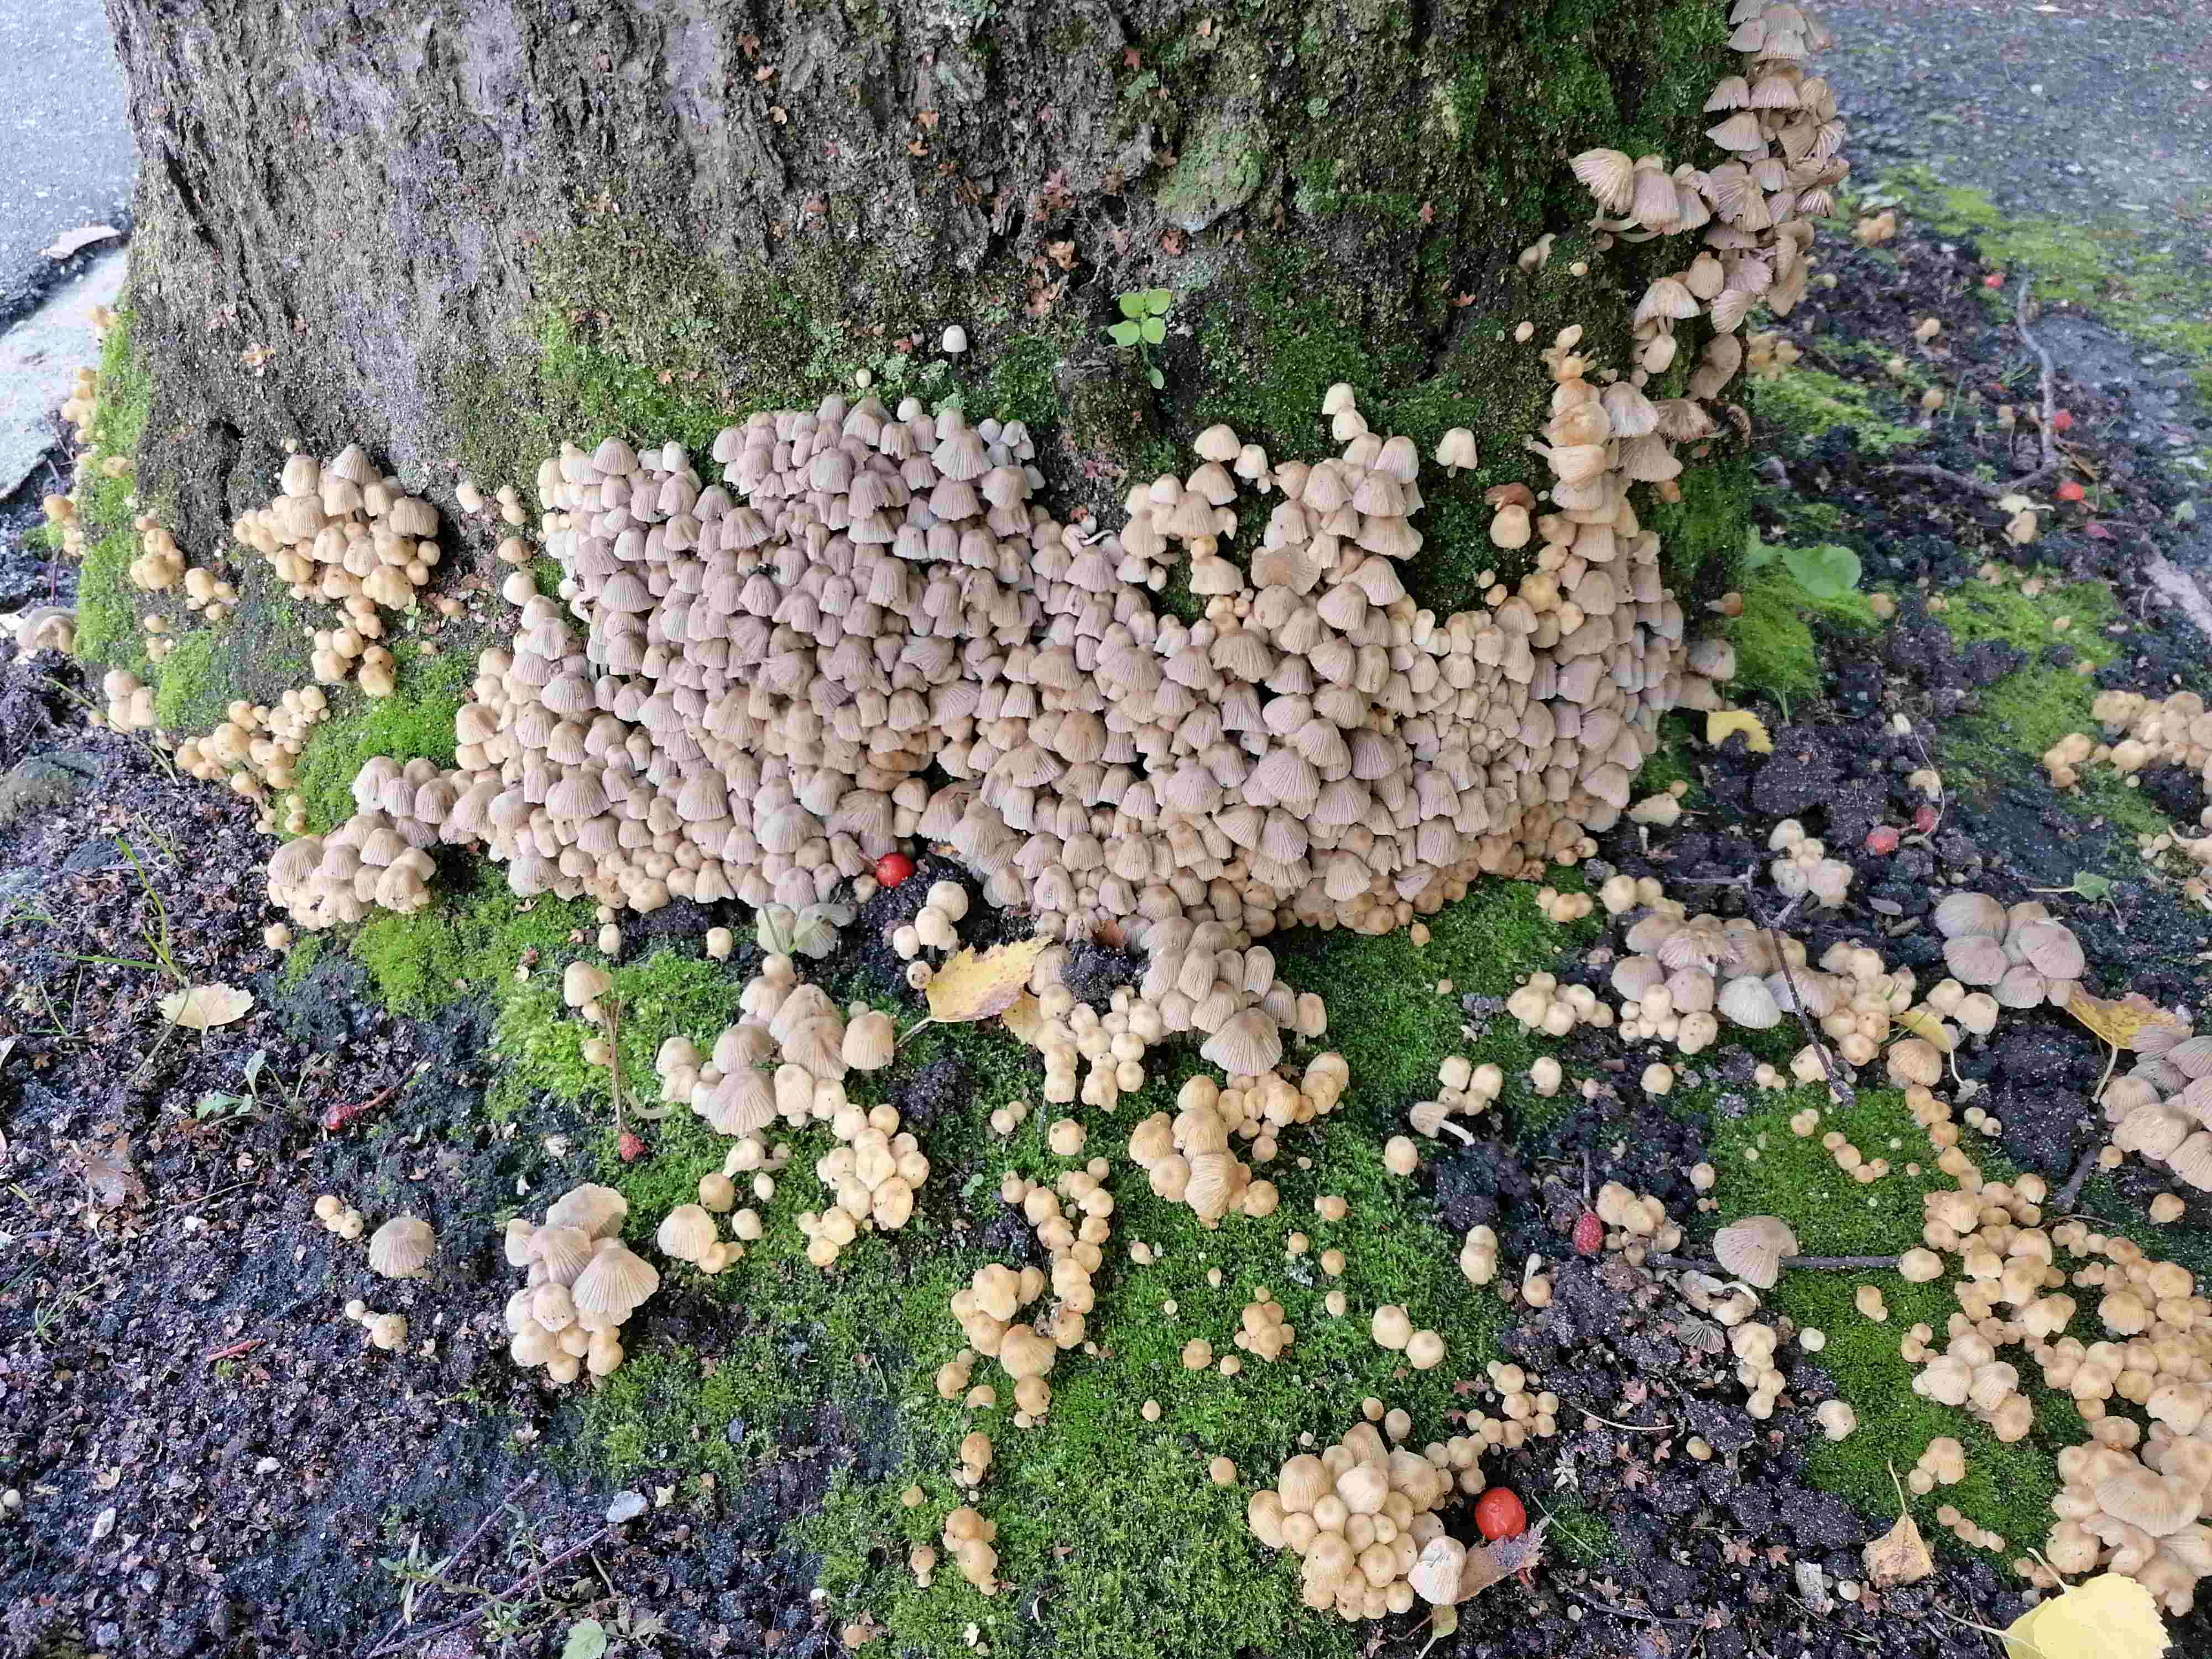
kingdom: Fungi
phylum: Basidiomycota
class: Agaricomycetes
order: Agaricales
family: Psathyrellaceae
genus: Coprinellus
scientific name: Coprinellus disseminatus
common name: bredsået blækhat
